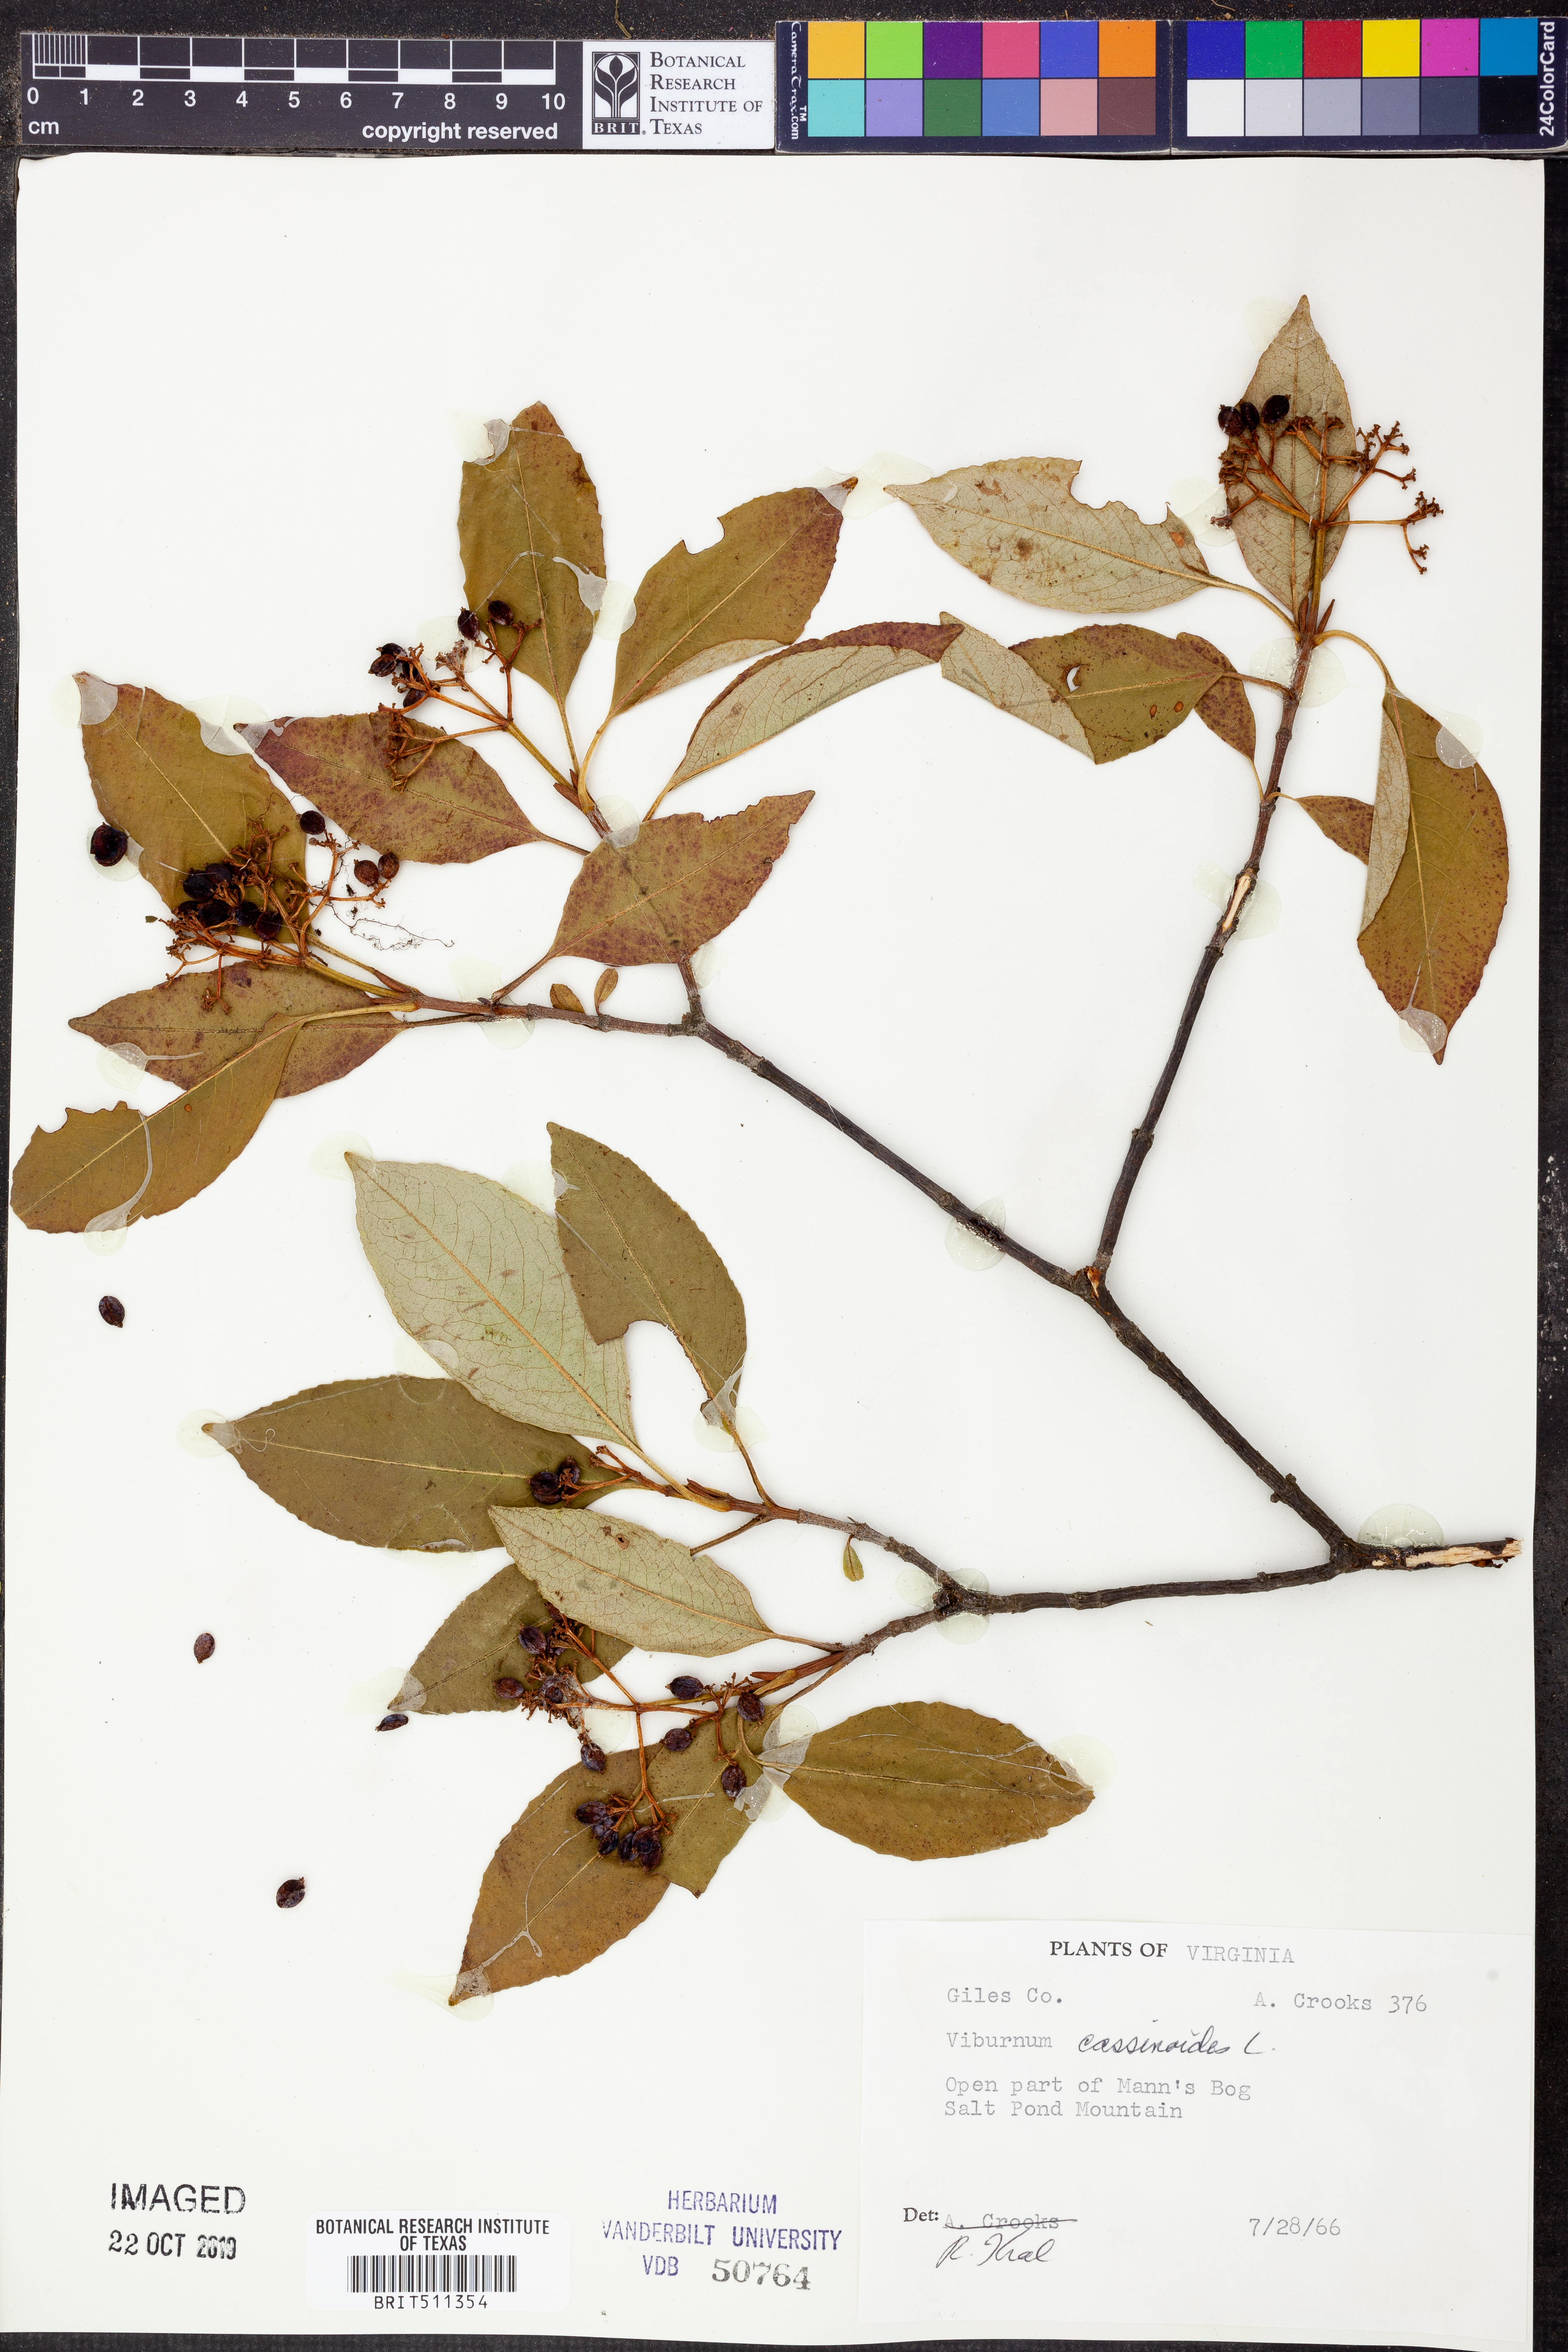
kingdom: Plantae
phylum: Tracheophyta
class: Magnoliopsida
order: Dipsacales
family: Viburnaceae
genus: Viburnum
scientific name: Viburnum cassinoides
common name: Swamp haw
